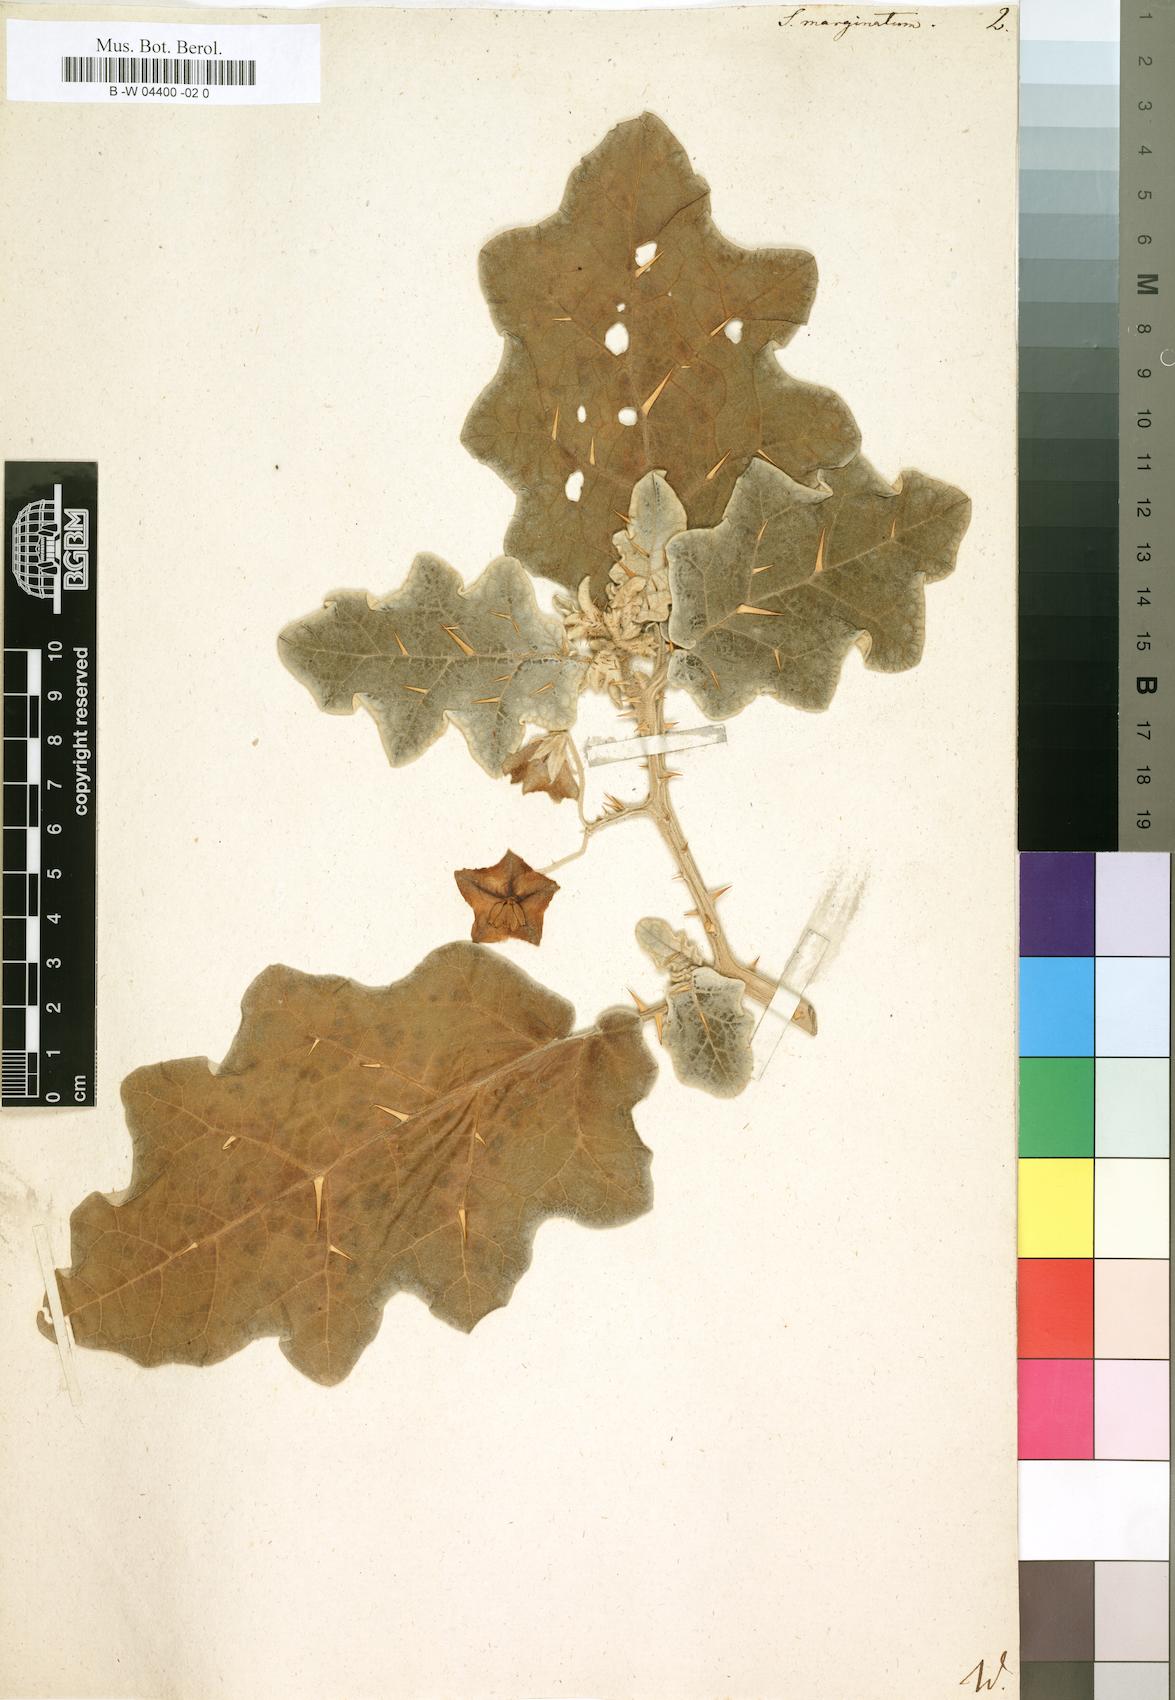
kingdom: Plantae
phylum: Tracheophyta
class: Magnoliopsida
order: Solanales
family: Solanaceae
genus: Solanum
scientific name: Solanum marginatum
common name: Purple african nightshade
